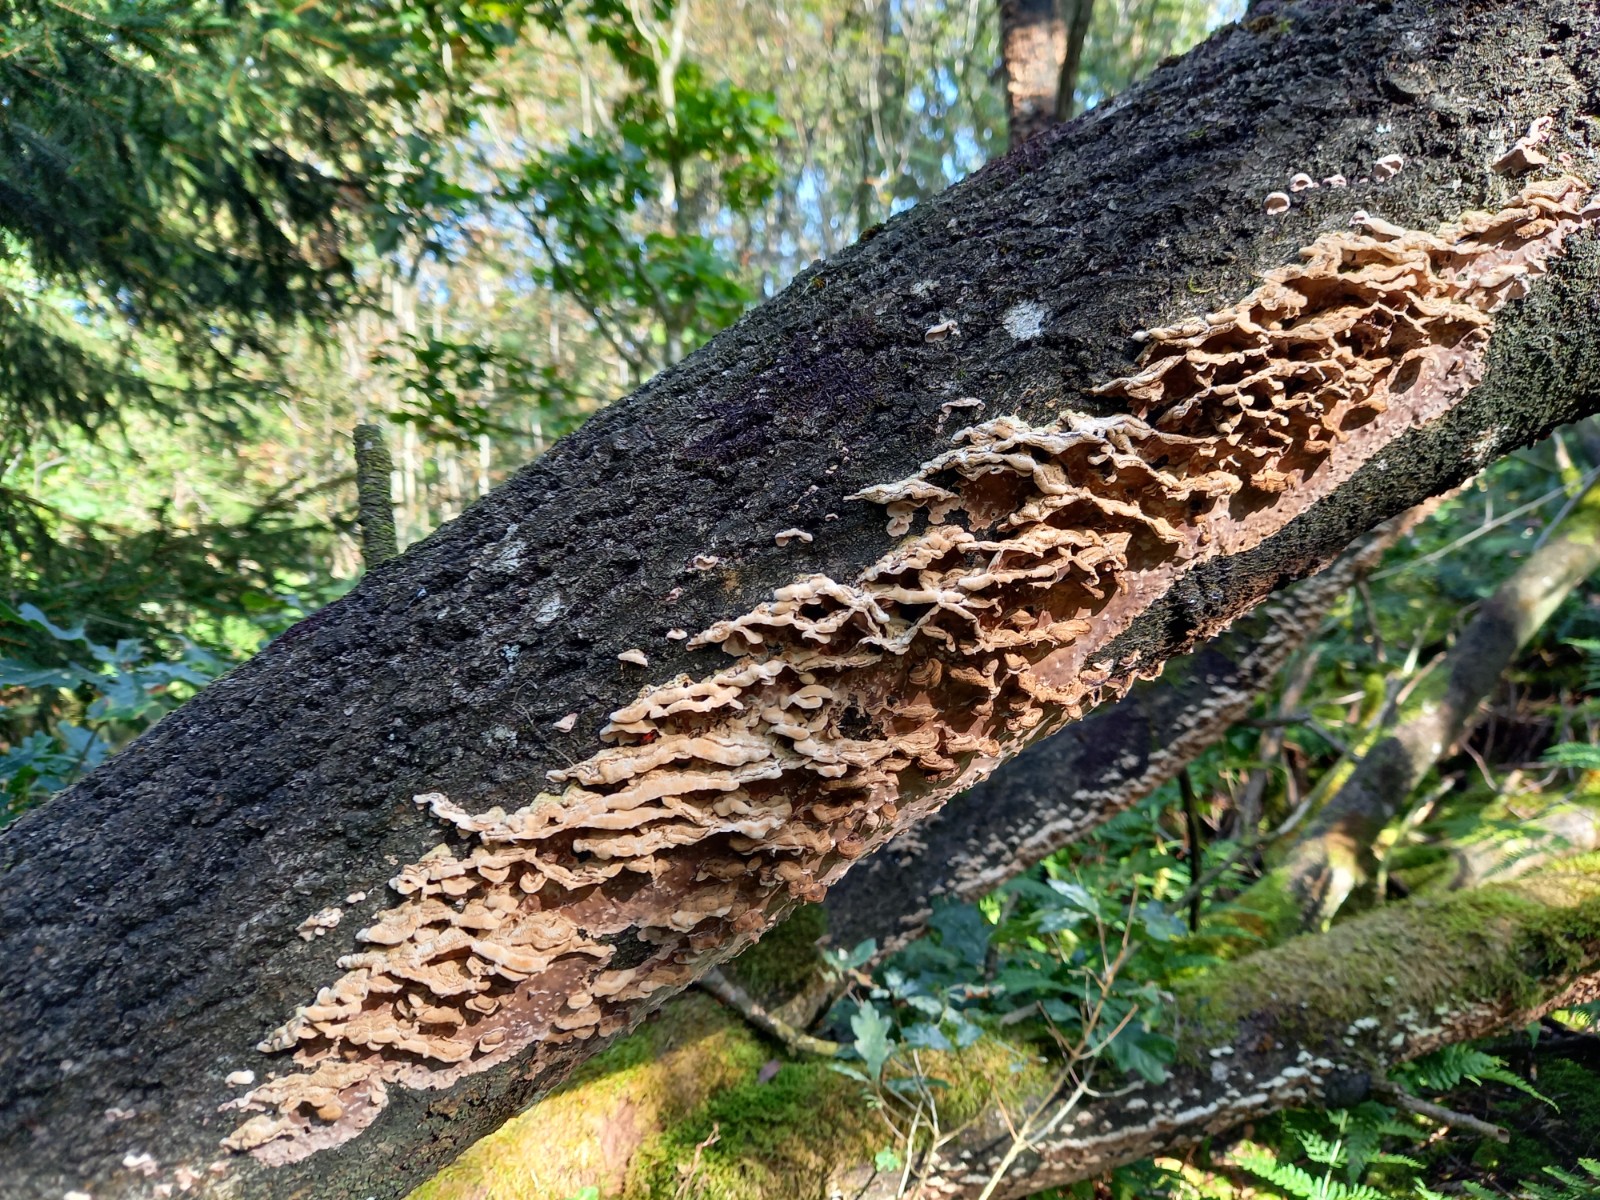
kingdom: Fungi
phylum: Basidiomycota
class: Agaricomycetes
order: Agaricales
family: Cyphellaceae
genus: Chondrostereum
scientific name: Chondrostereum purpureum
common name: purpurlædersvamp
